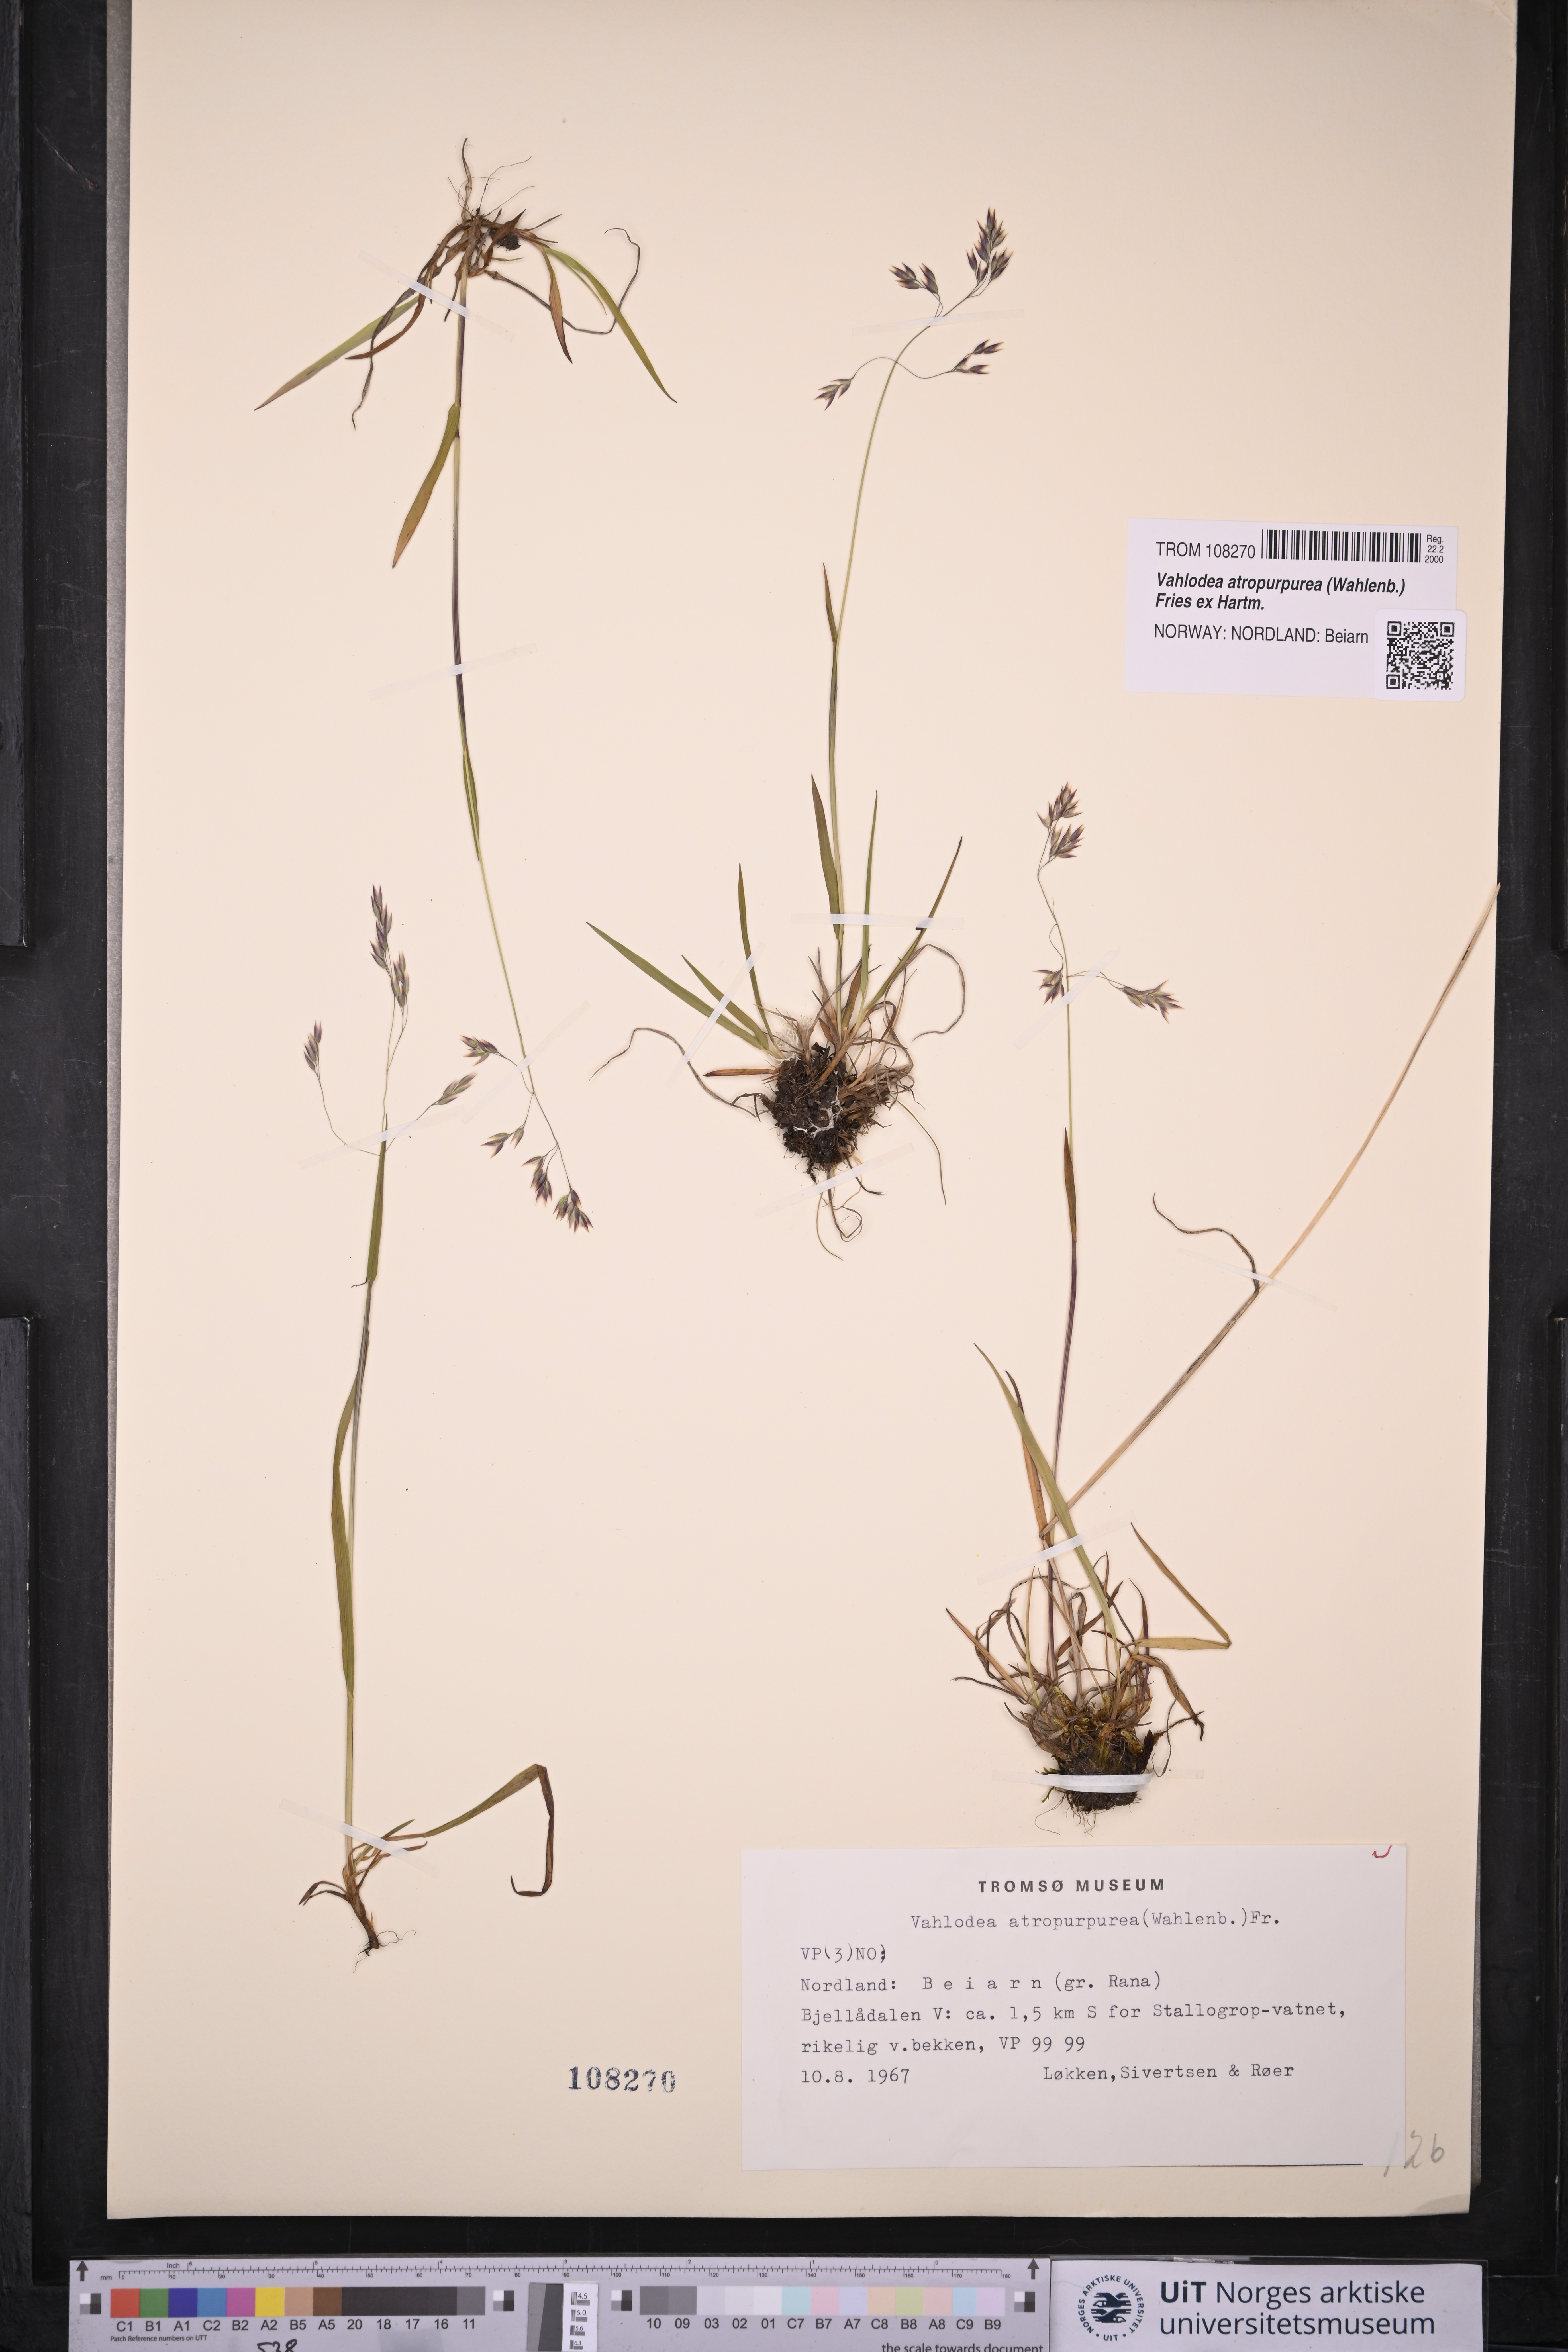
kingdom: Plantae
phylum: Tracheophyta
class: Liliopsida
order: Poales
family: Poaceae
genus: Vahlodea
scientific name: Vahlodea atropurpurea
